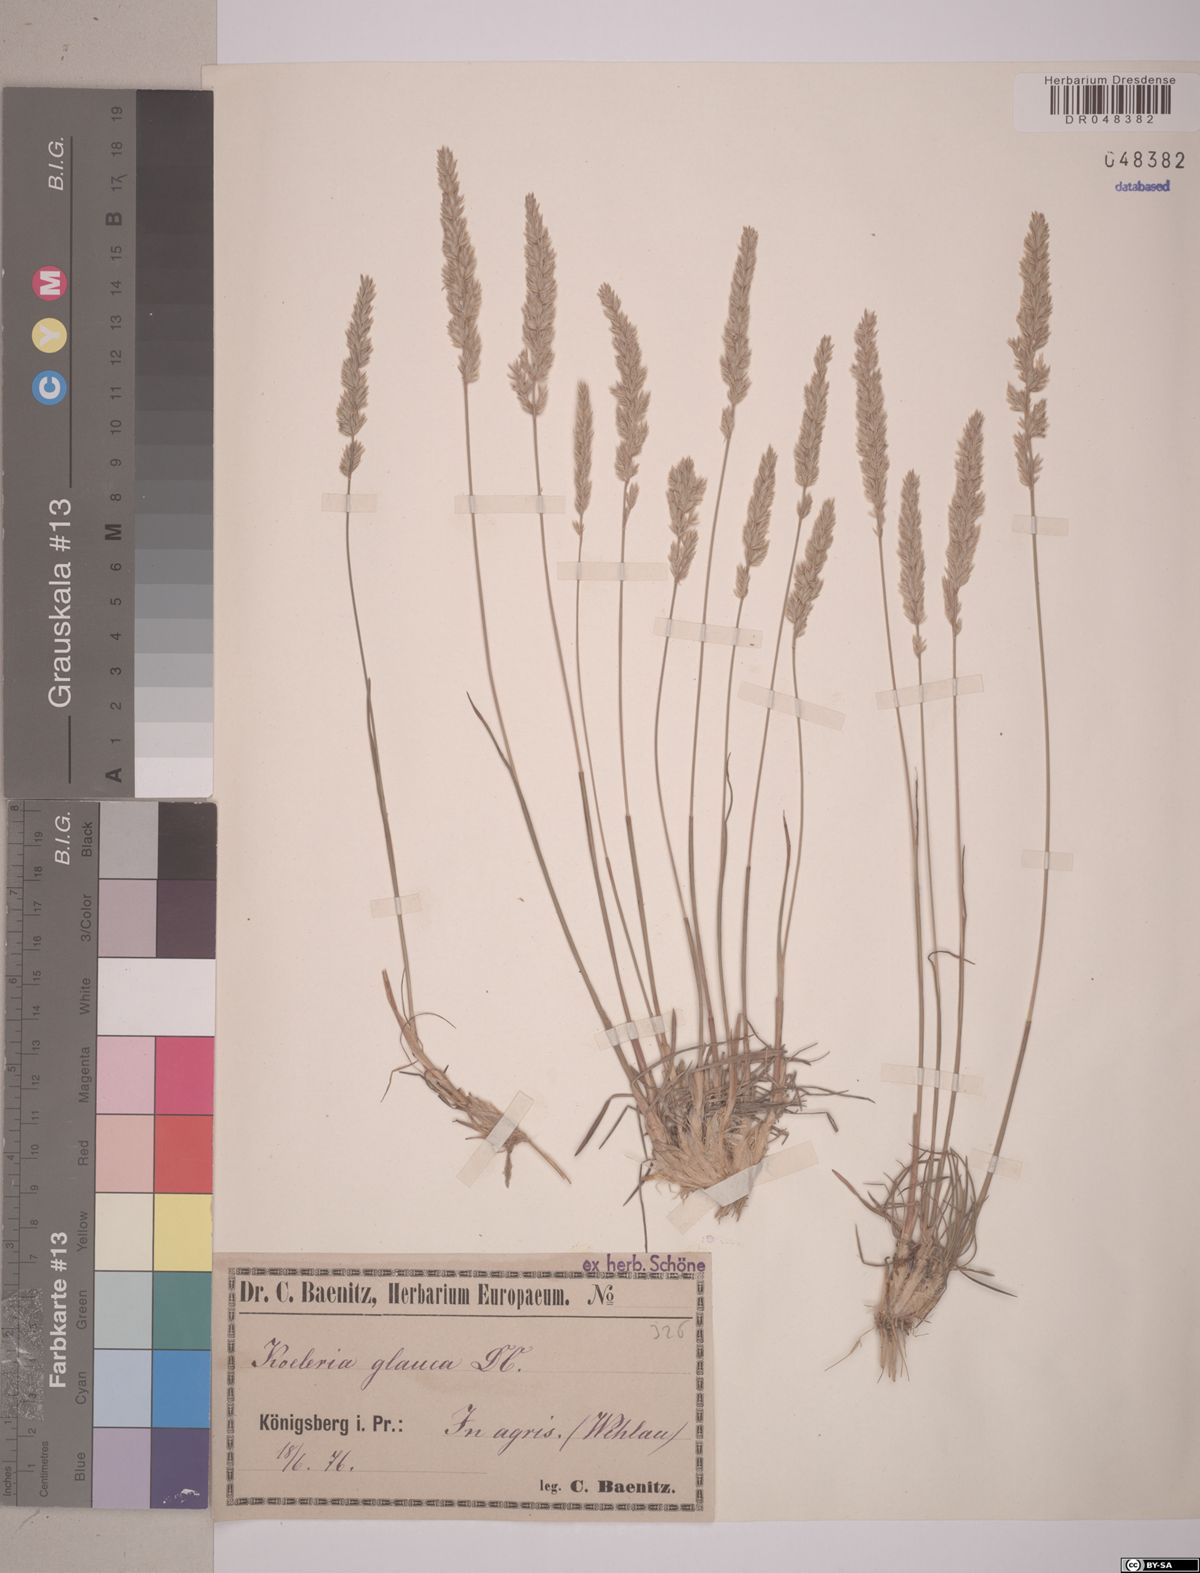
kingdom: Plantae
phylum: Tracheophyta
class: Liliopsida
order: Poales
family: Poaceae
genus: Koeleria
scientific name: Koeleria glauca
